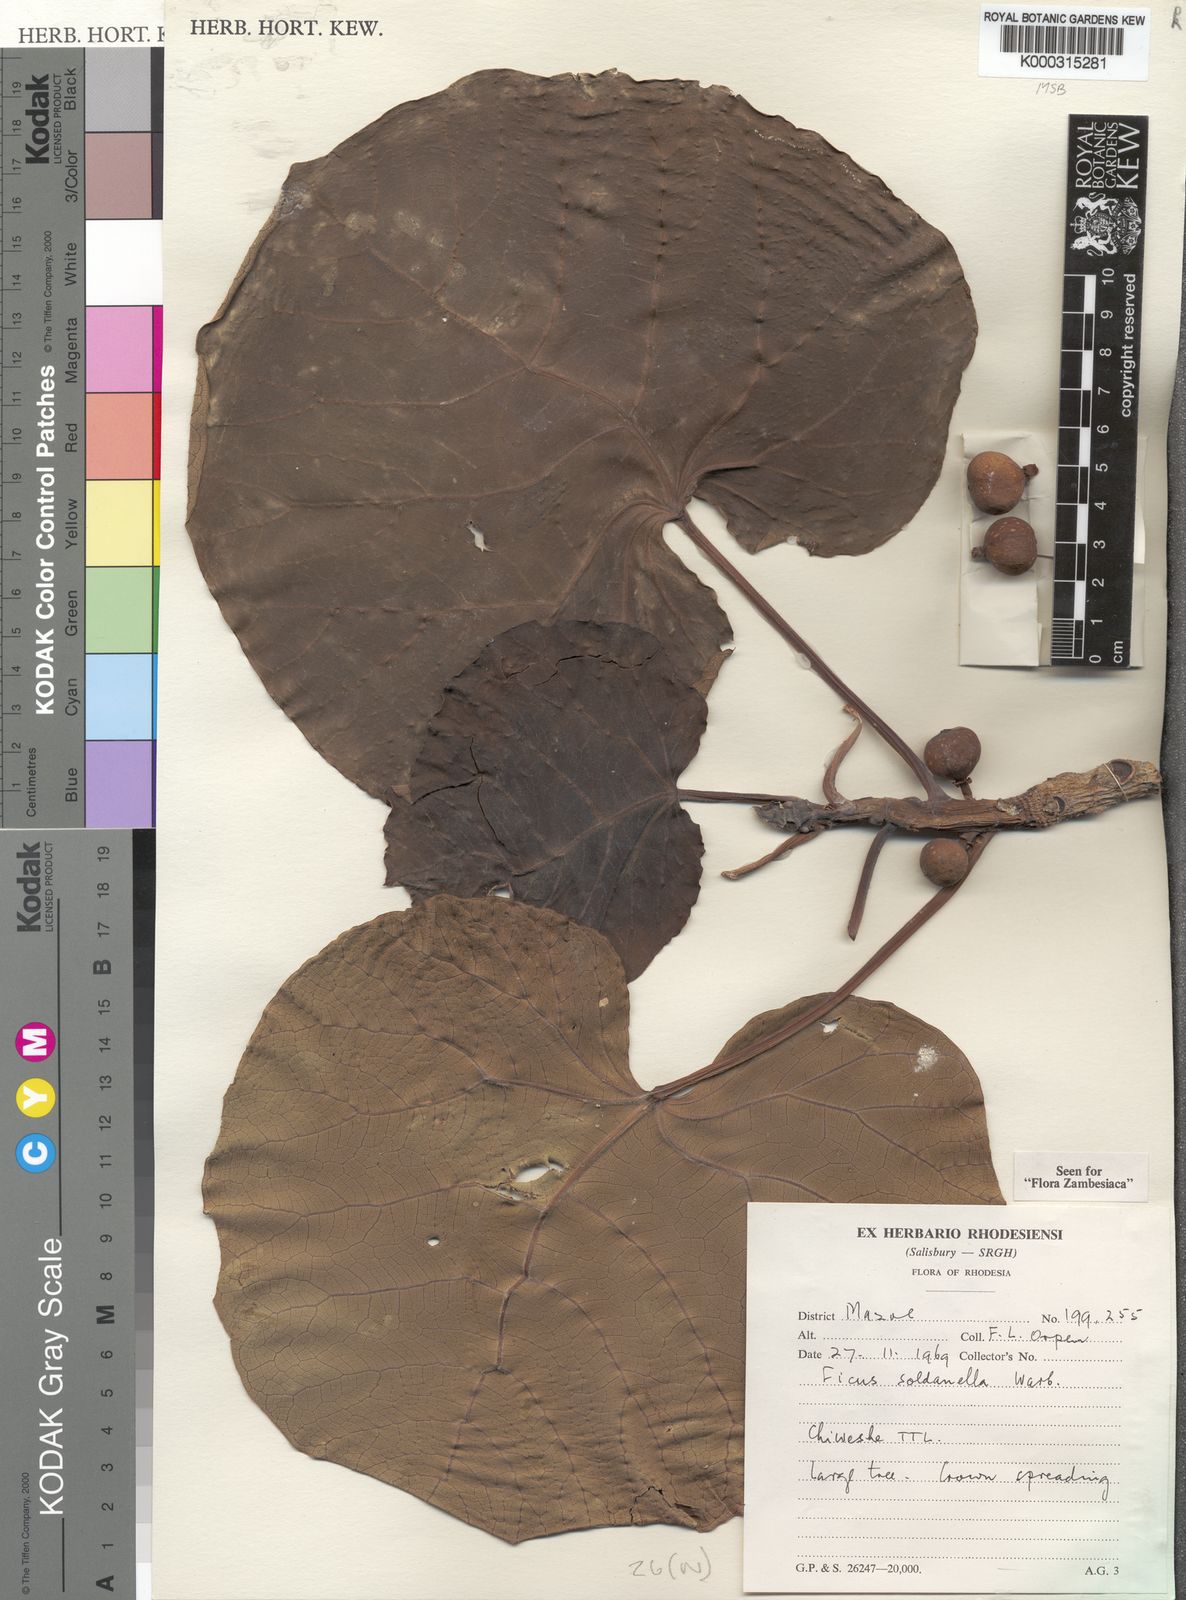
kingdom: Plantae
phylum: Tracheophyta
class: Magnoliopsida
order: Rosales
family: Moraceae
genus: Ficus
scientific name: Ficus abutilifolia
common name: Large-leaved rock fig
